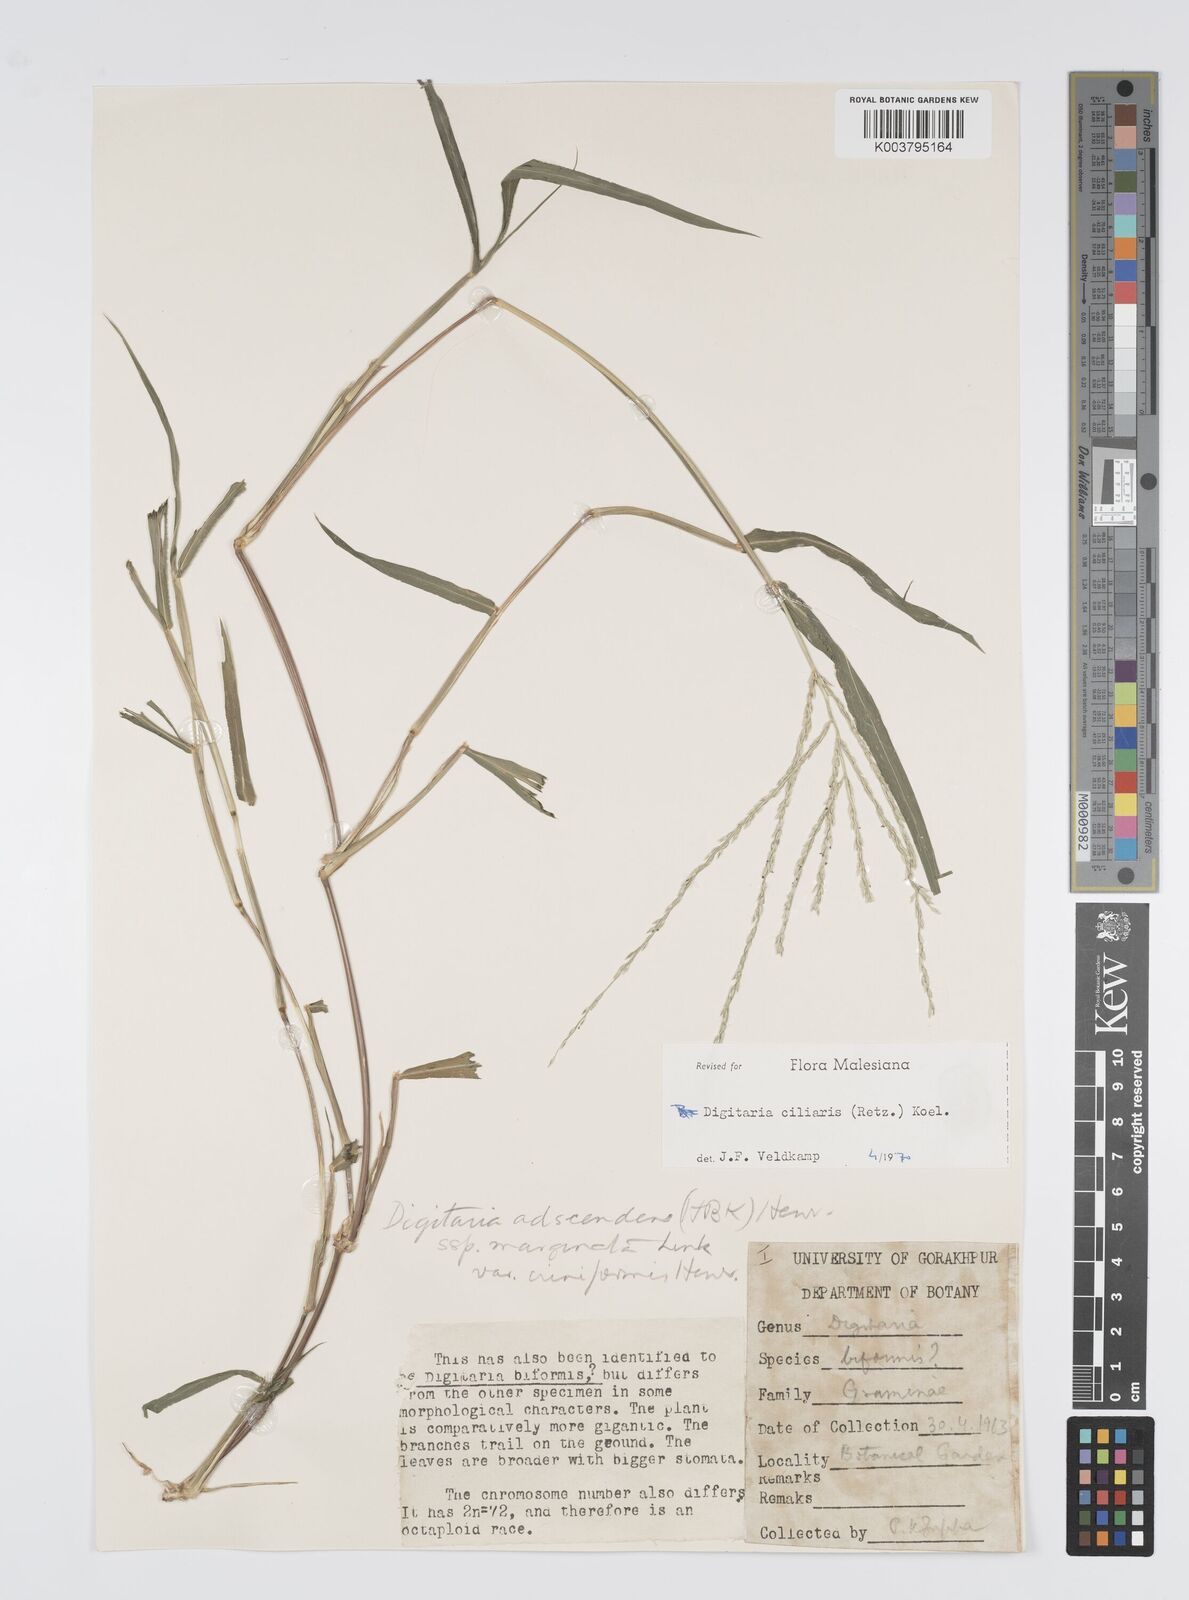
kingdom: Plantae
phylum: Tracheophyta
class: Liliopsida
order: Poales
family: Poaceae
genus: Digitaria
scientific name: Digitaria ciliaris
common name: Tropical finger-grass
